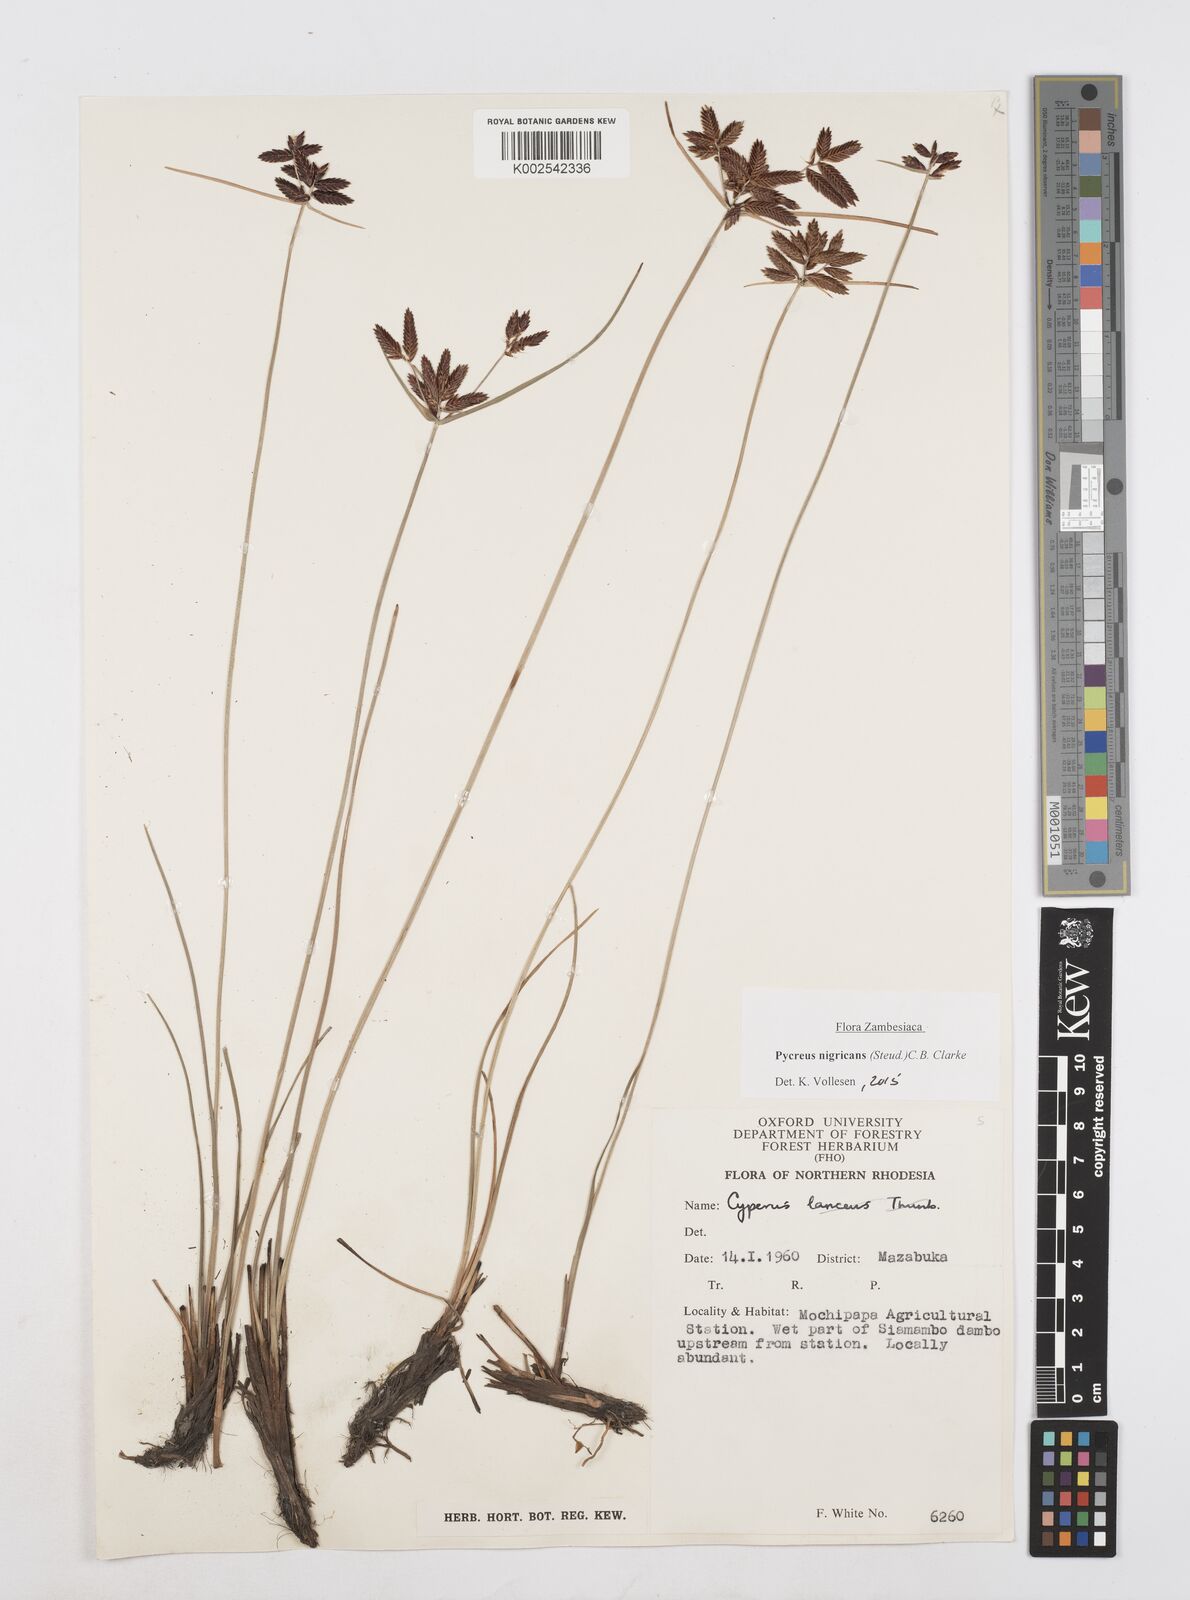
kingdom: Plantae
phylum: Tracheophyta
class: Liliopsida
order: Poales
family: Cyperaceae
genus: Cyperus
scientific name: Cyperus nigricans
